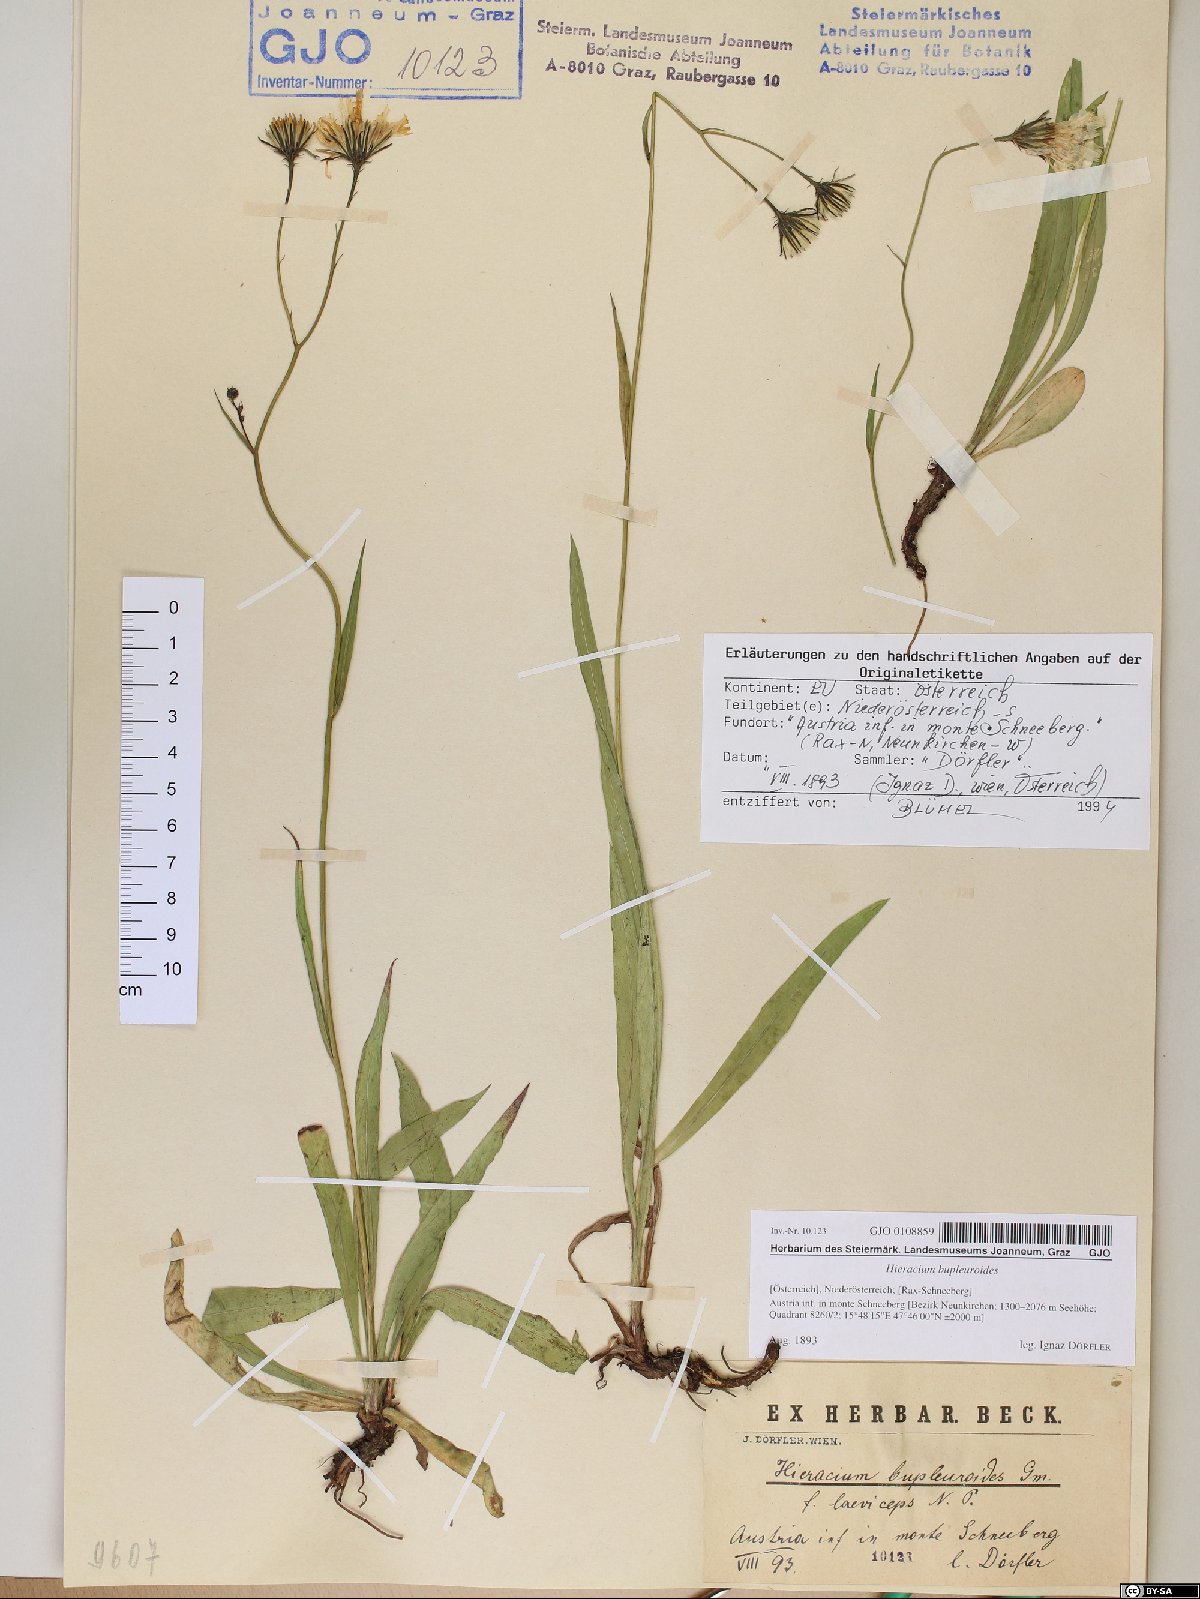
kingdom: Plantae
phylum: Tracheophyta
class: Magnoliopsida
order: Asterales
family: Asteraceae
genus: Hieracium
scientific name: Hieracium bupleuroides
